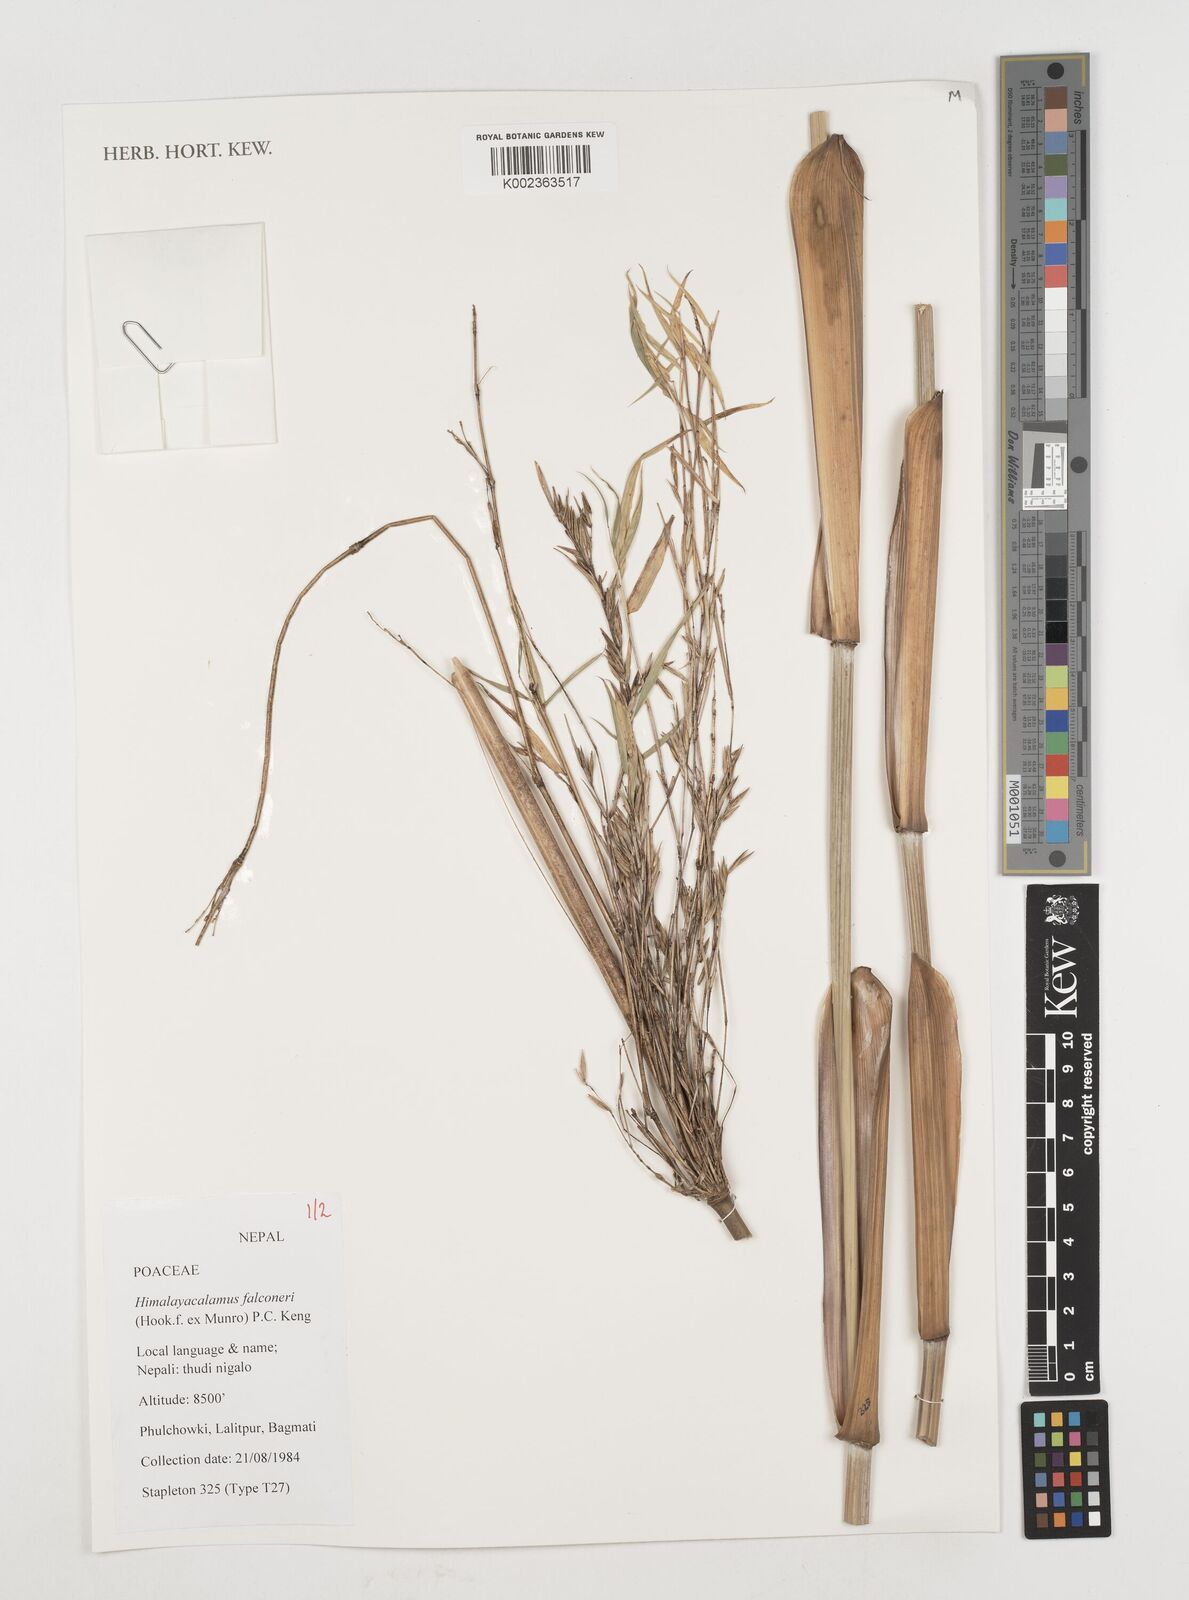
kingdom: Plantae
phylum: Tracheophyta
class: Liliopsida
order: Poales
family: Poaceae
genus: Himalayacalamus
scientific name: Himalayacalamus falconeri
